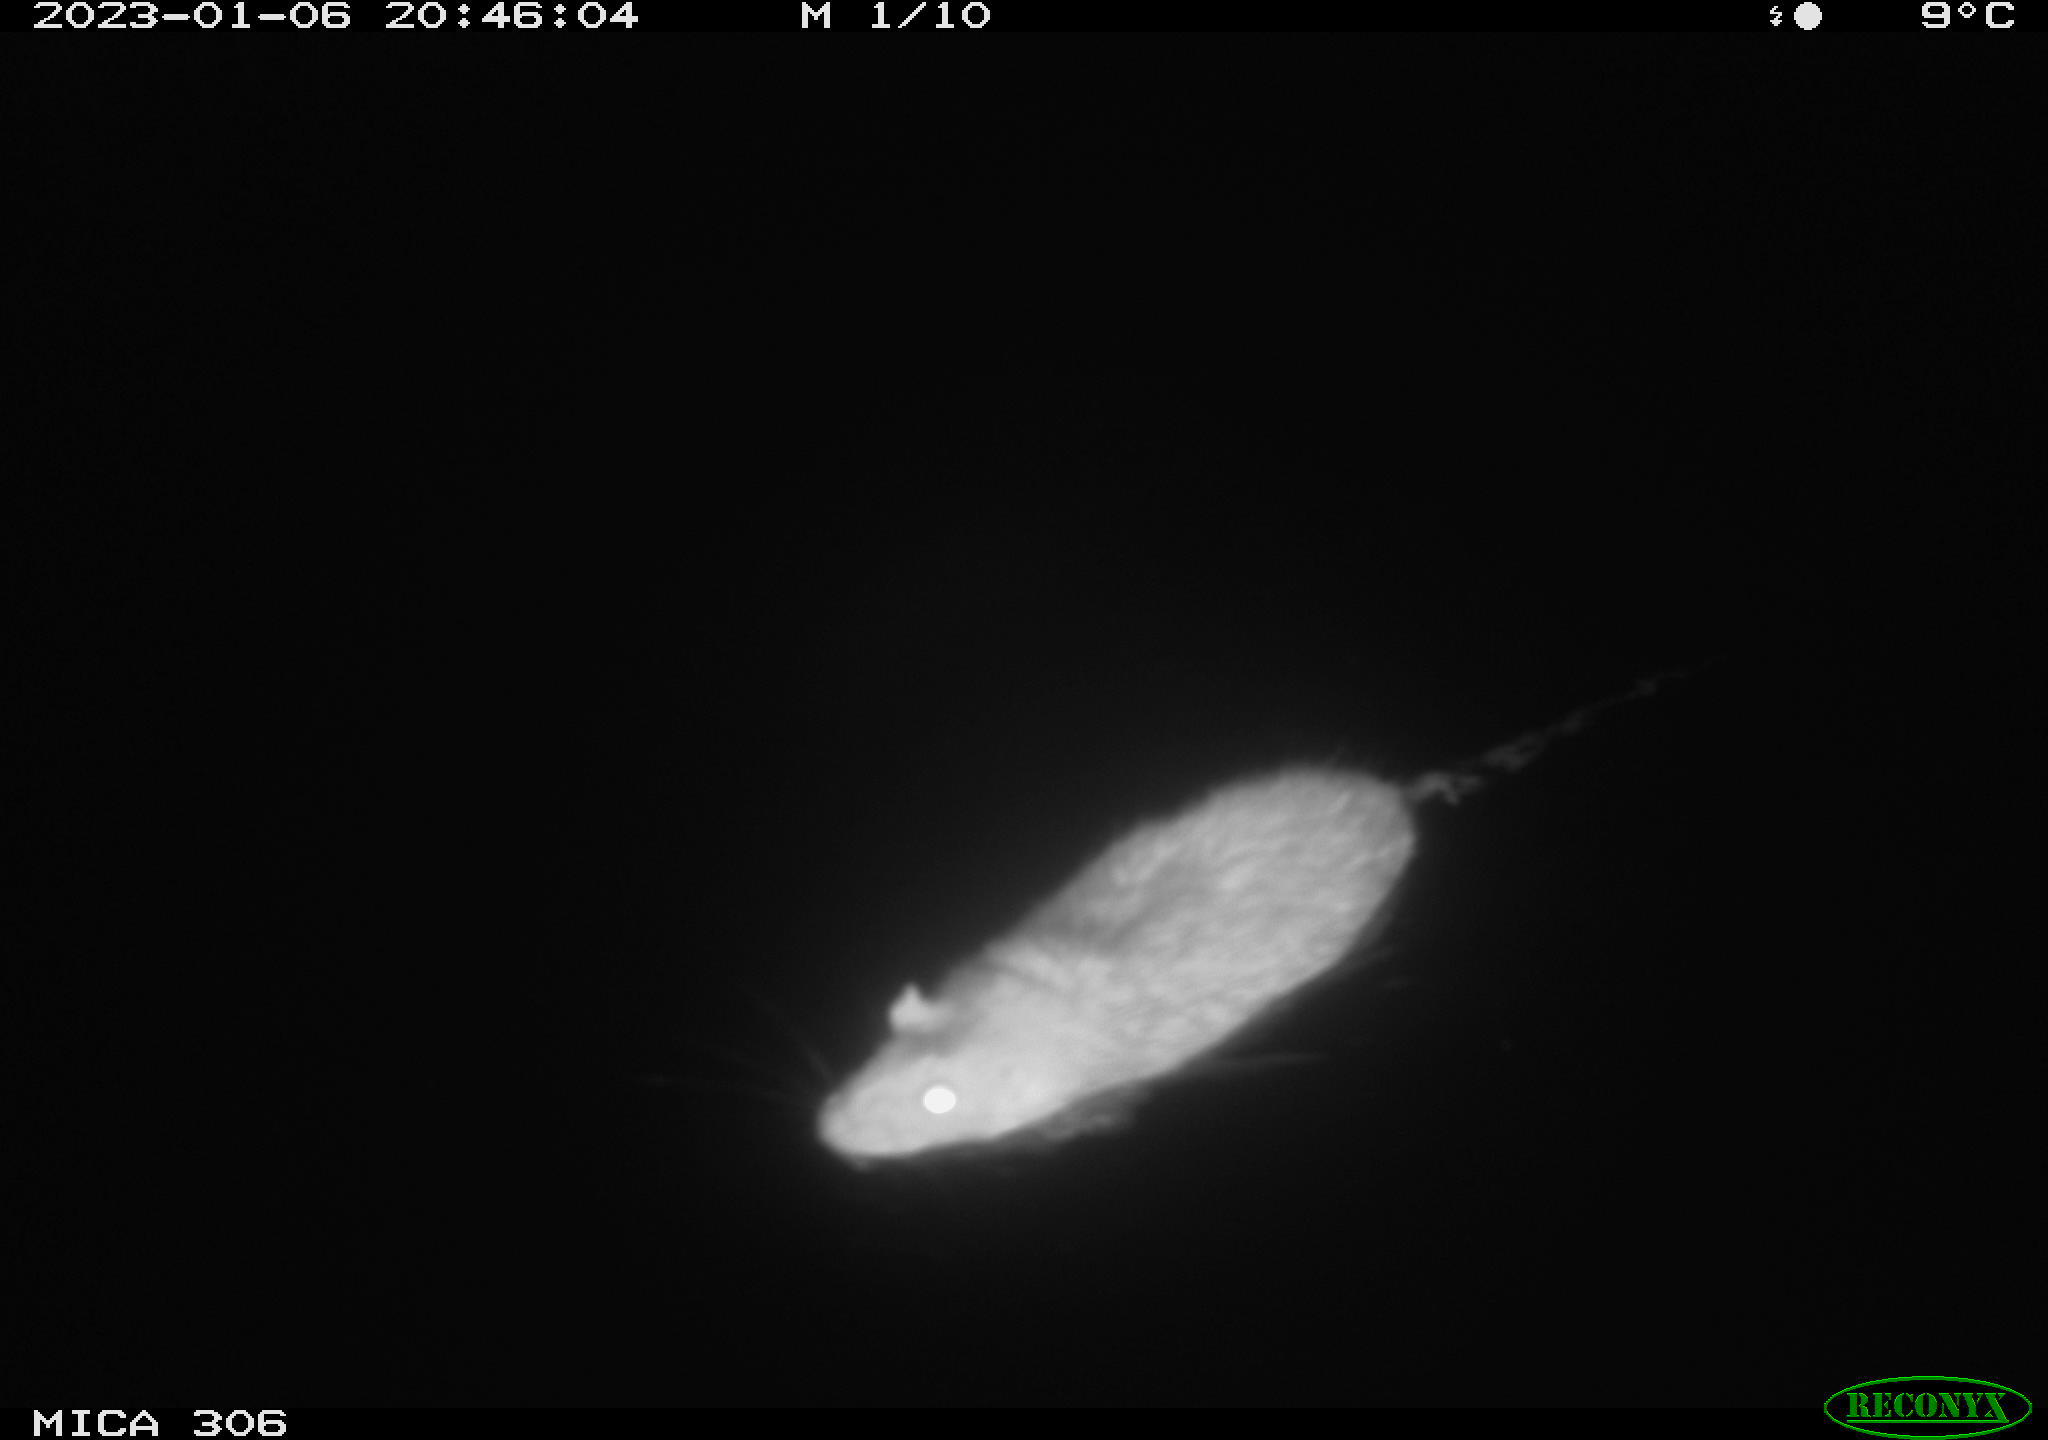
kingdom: Animalia
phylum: Chordata
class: Mammalia
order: Rodentia
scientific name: Rodentia
